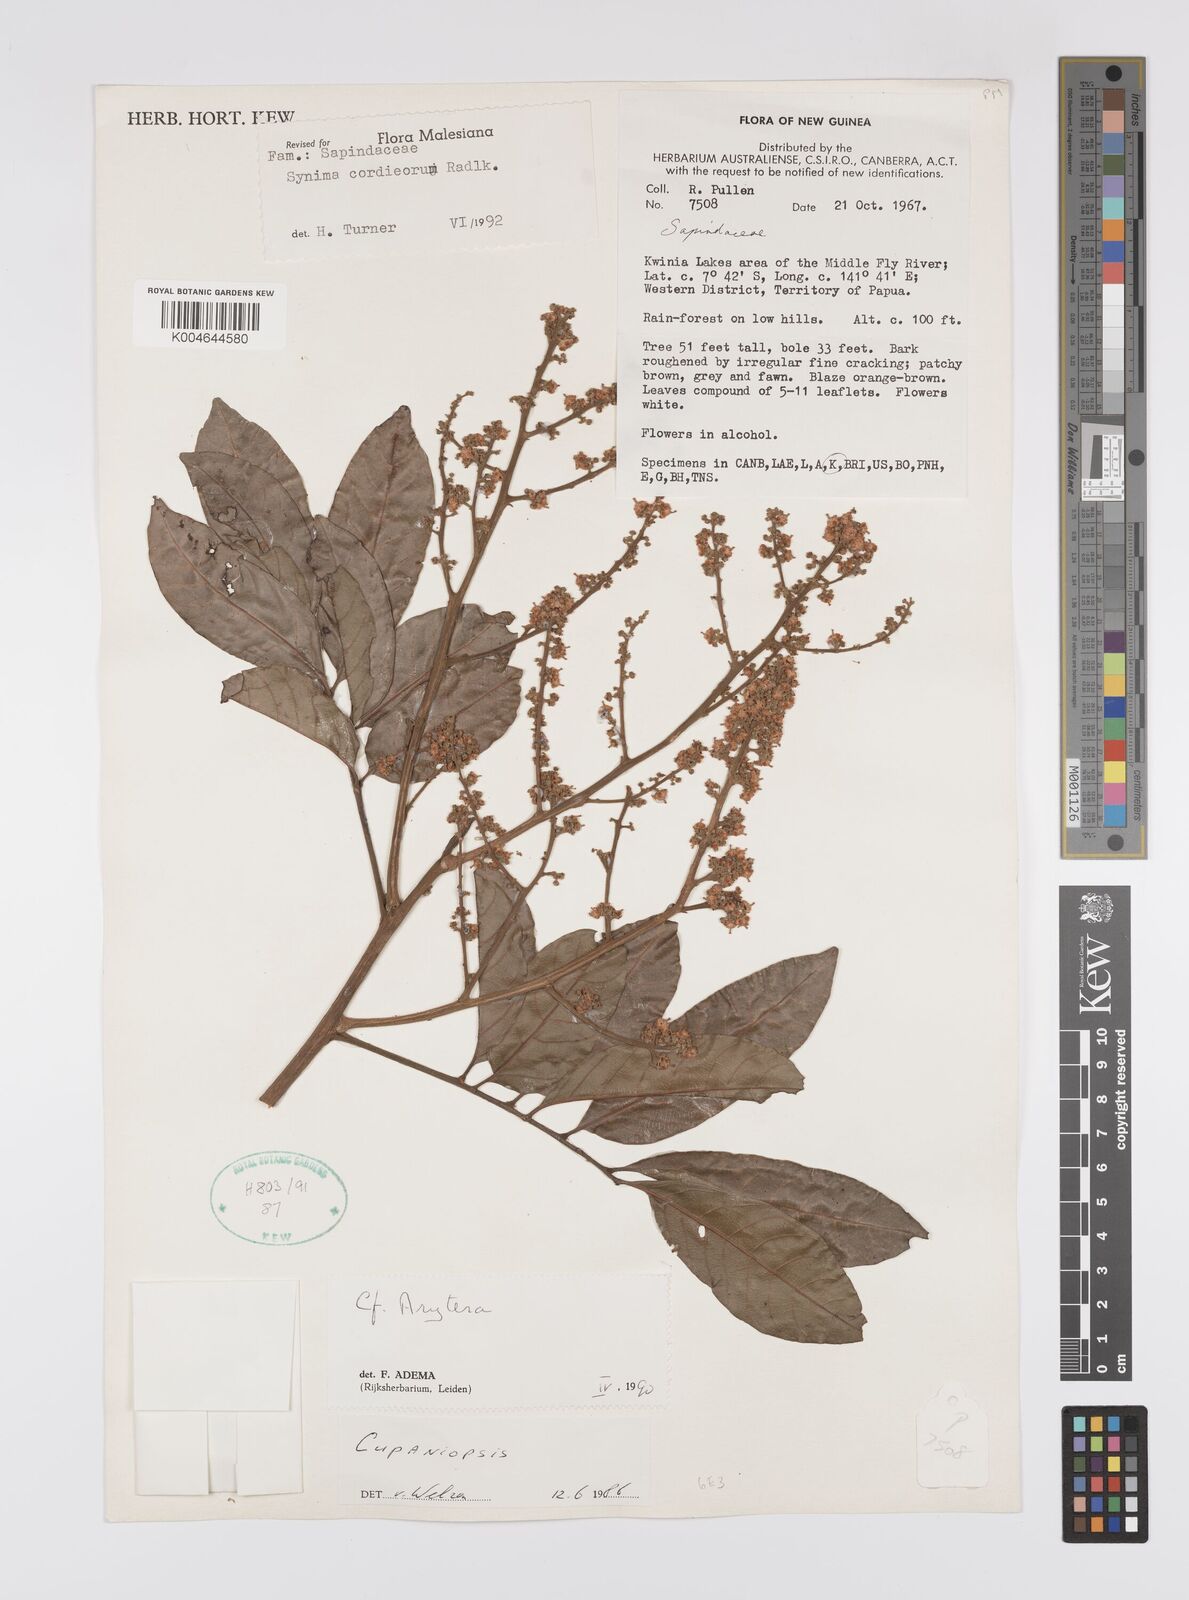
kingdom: Plantae
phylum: Tracheophyta
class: Magnoliopsida
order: Sapindales
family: Sapindaceae
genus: Synima
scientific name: Synima cordierorum
